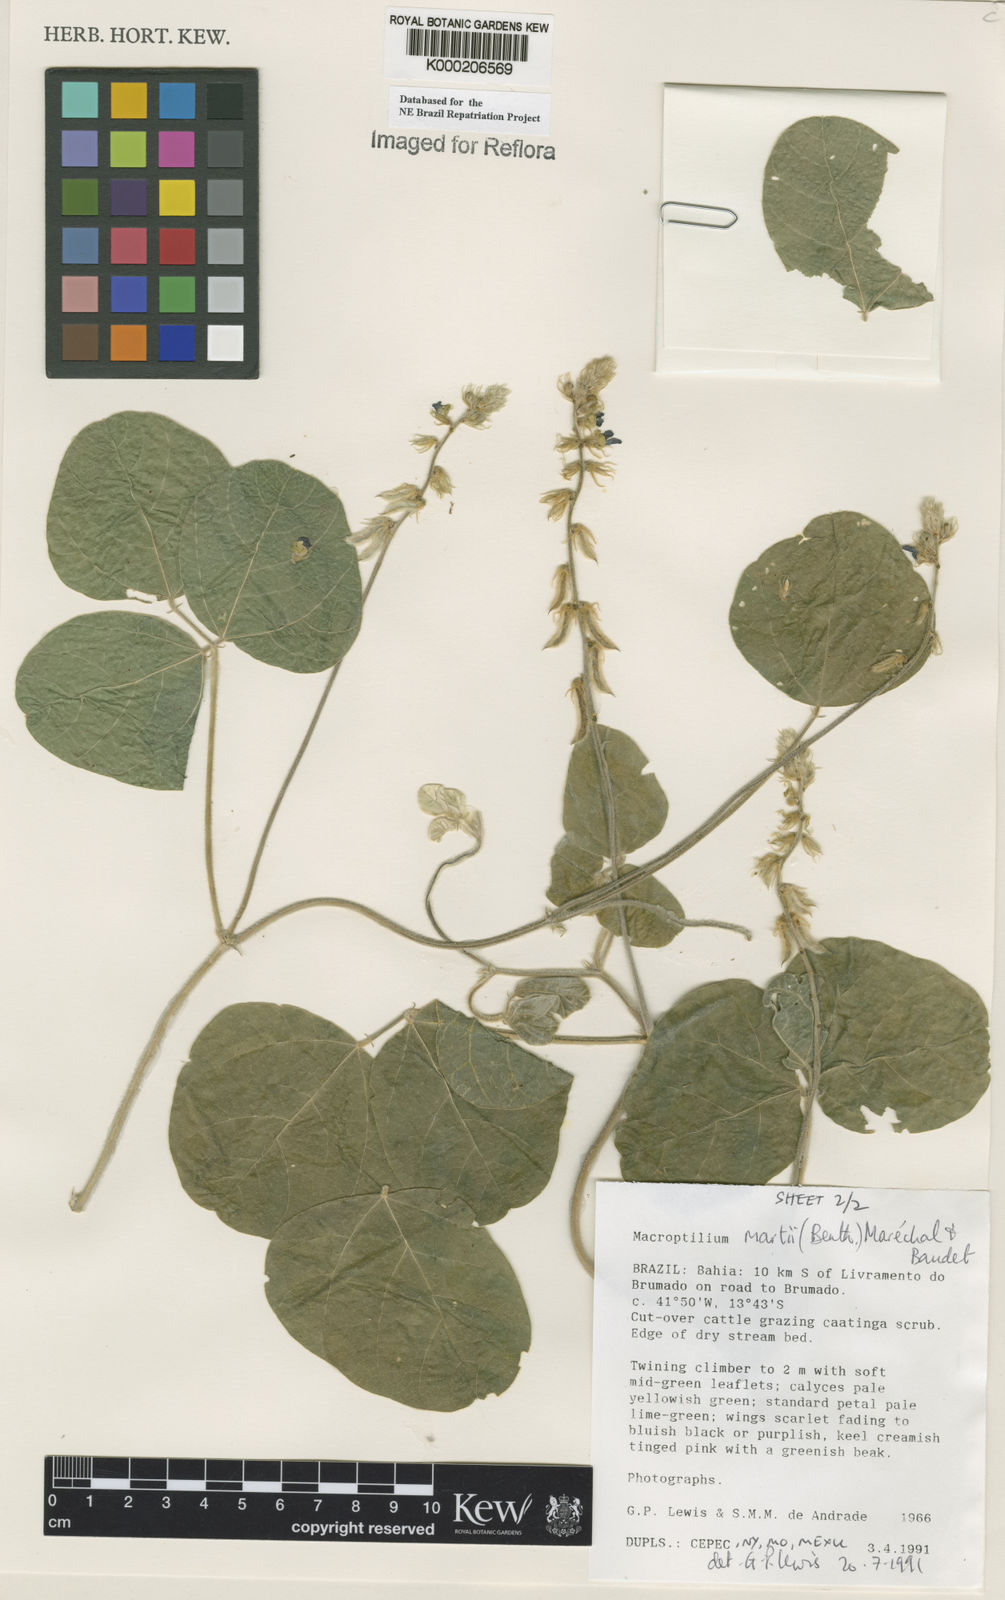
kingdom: Plantae
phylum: Tracheophyta
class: Magnoliopsida
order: Fabales
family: Fabaceae
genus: Macroptilium
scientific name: Macroptilium
